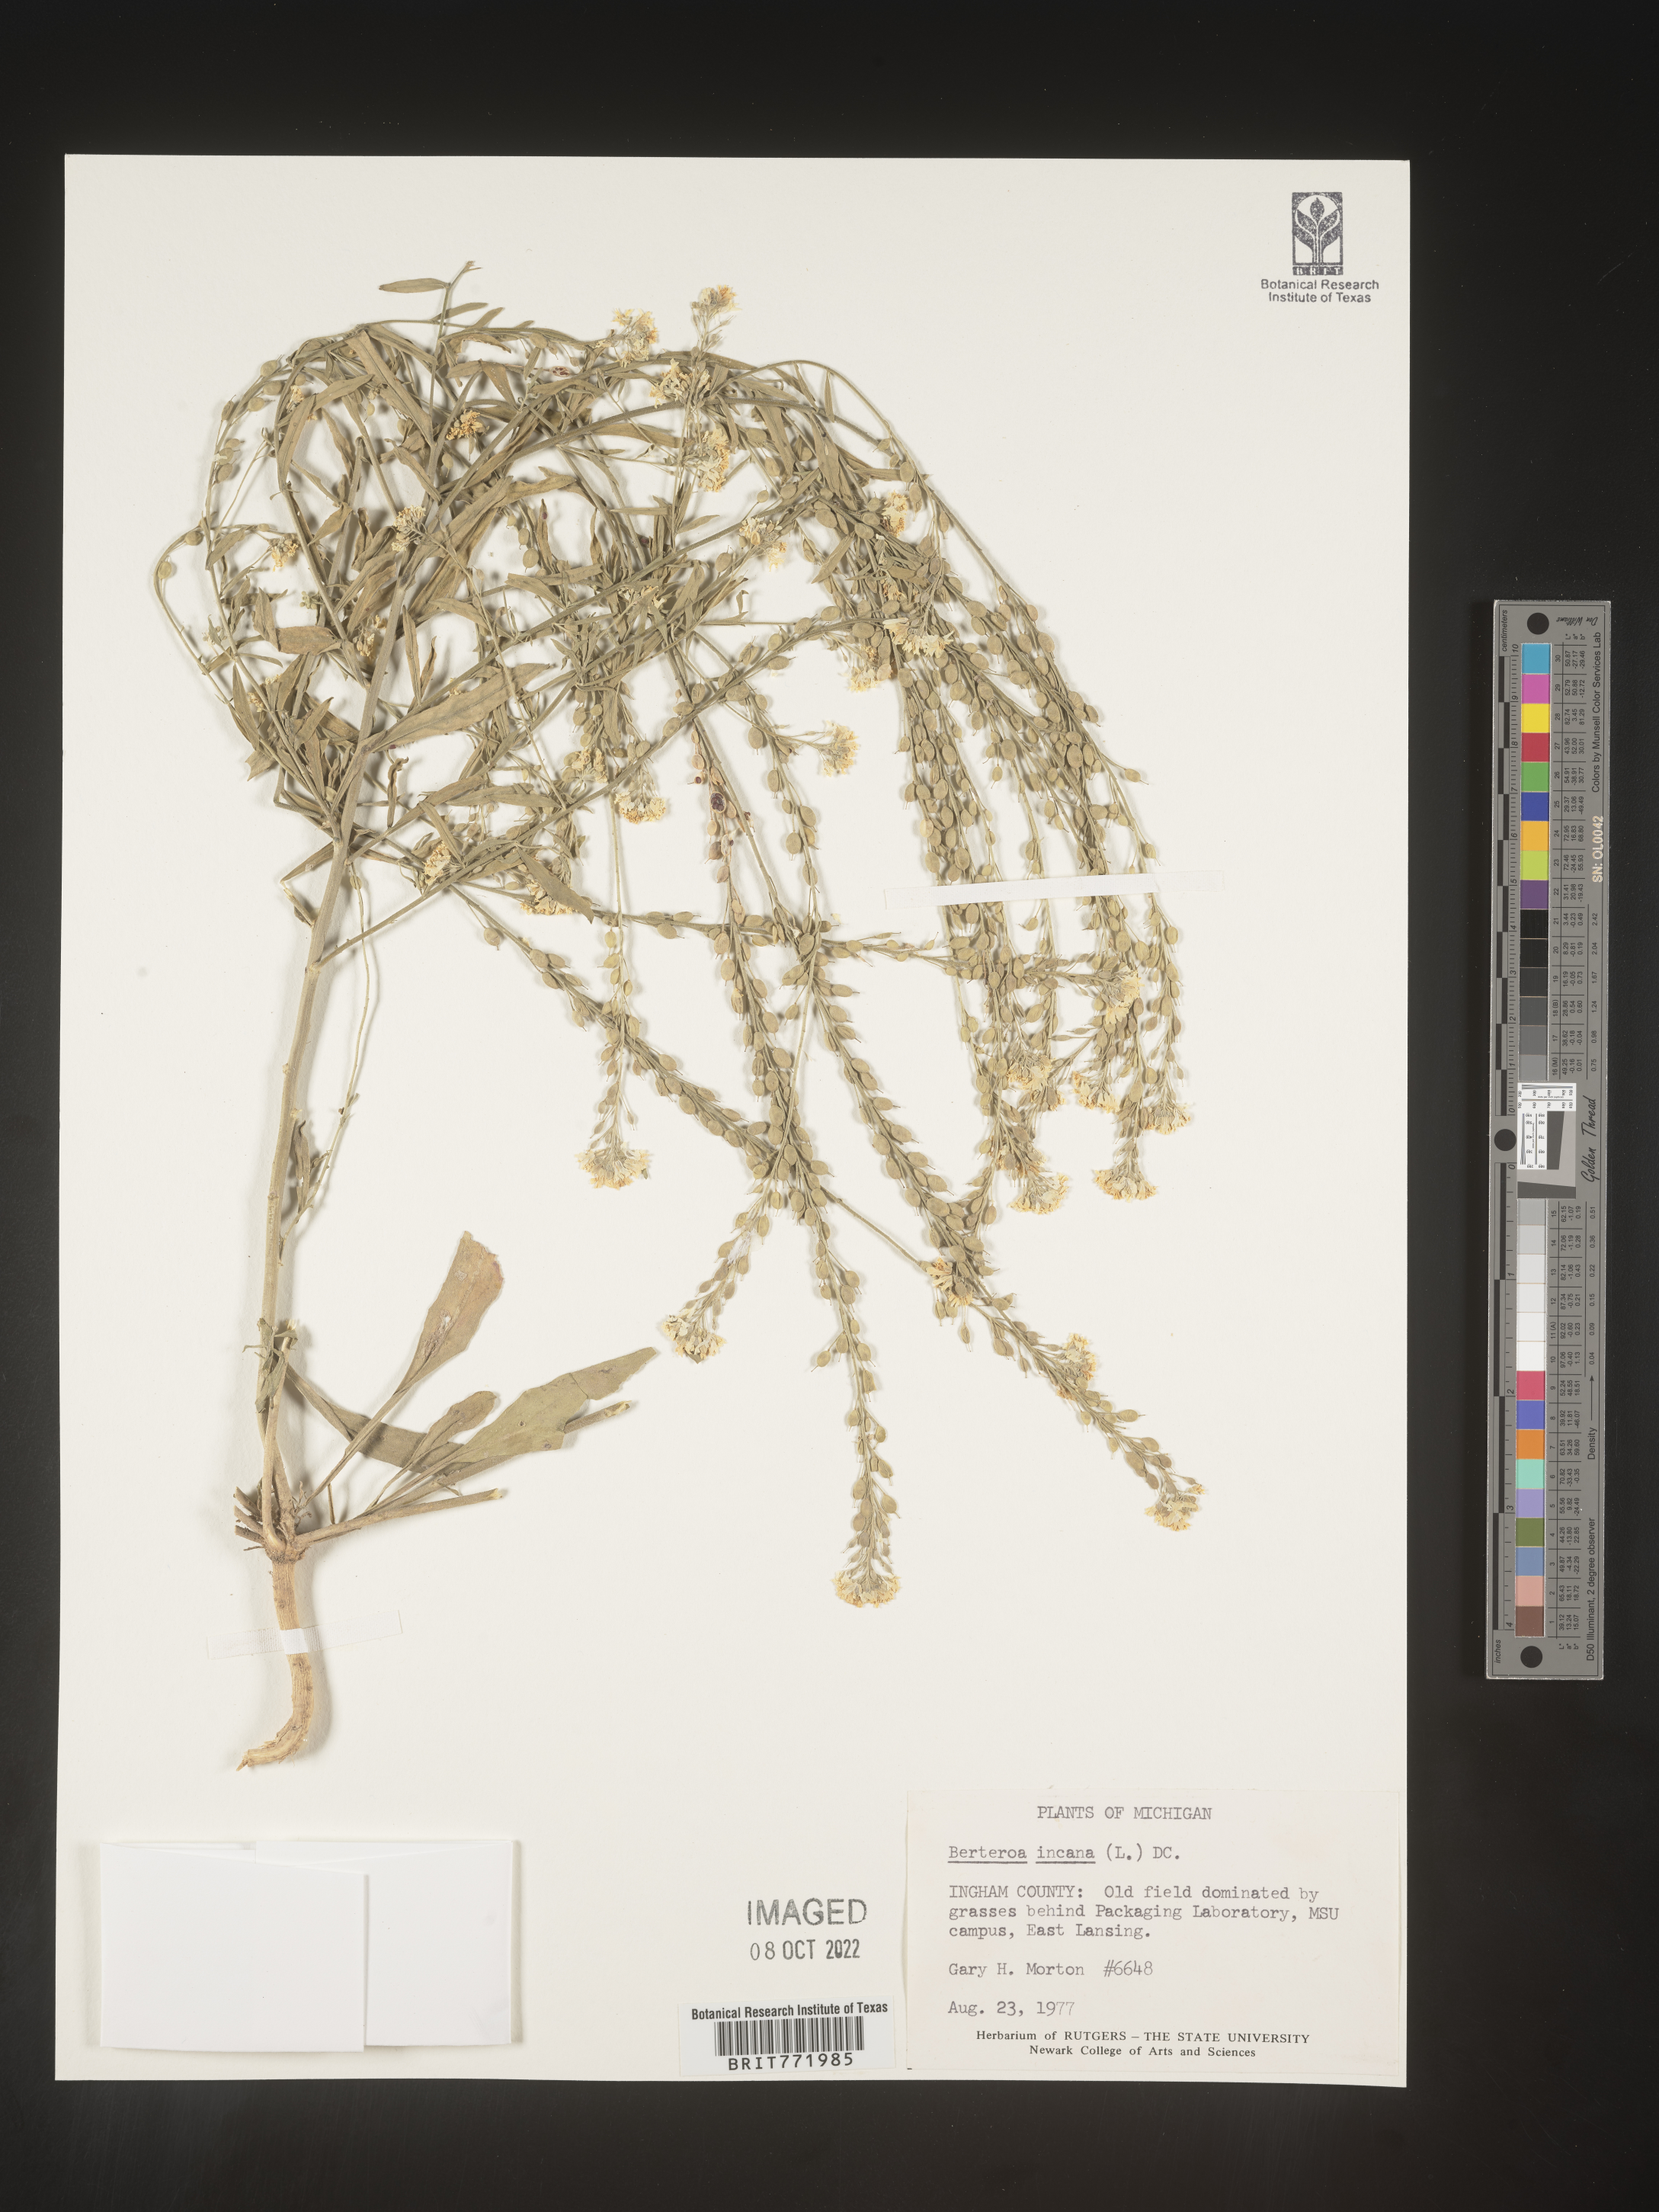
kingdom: Plantae
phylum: Tracheophyta
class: Magnoliopsida
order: Brassicales
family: Brassicaceae
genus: Berteroa
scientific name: Berteroa incana
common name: Hoary alison
